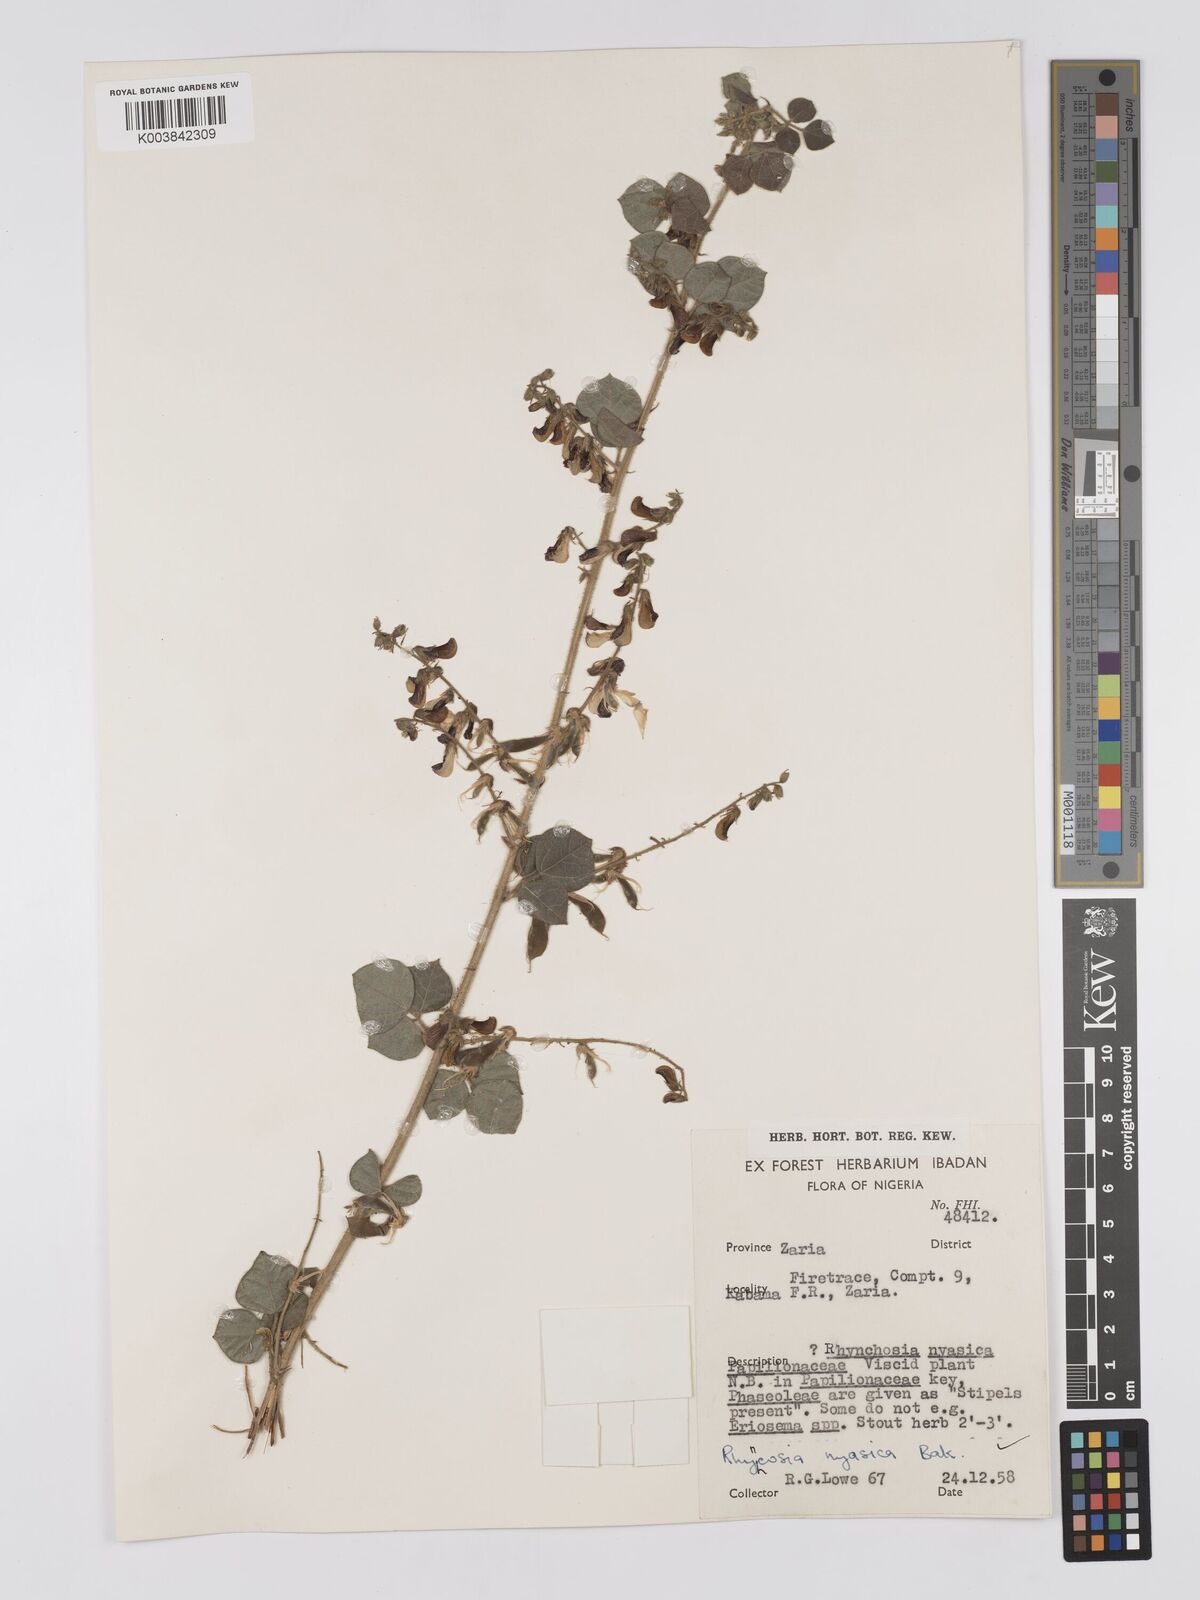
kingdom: Plantae
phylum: Tracheophyta
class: Magnoliopsida
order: Fabales
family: Fabaceae
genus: Rhynchosia
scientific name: Rhynchosia nyasica
